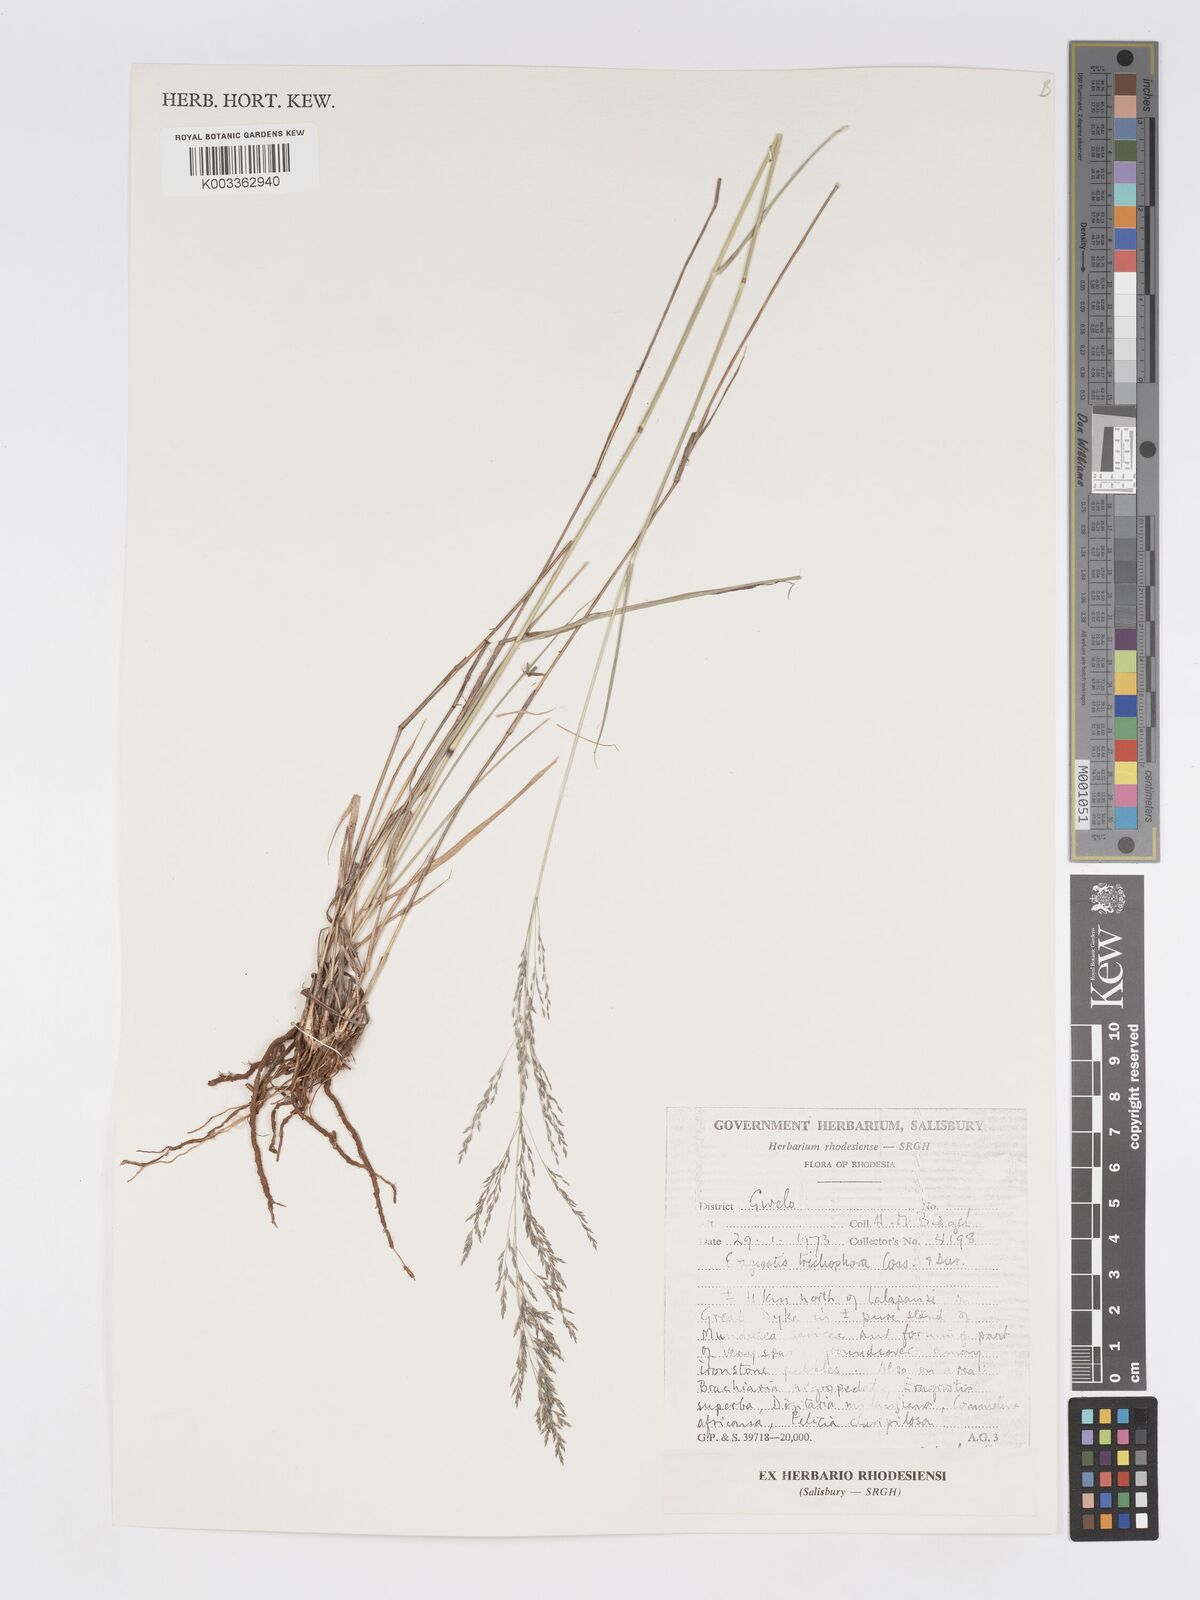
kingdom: Plantae
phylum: Tracheophyta
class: Liliopsida
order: Poales
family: Poaceae
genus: Eragrostis
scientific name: Eragrostis cylindriflora
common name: Cylinderflower lovegrass
